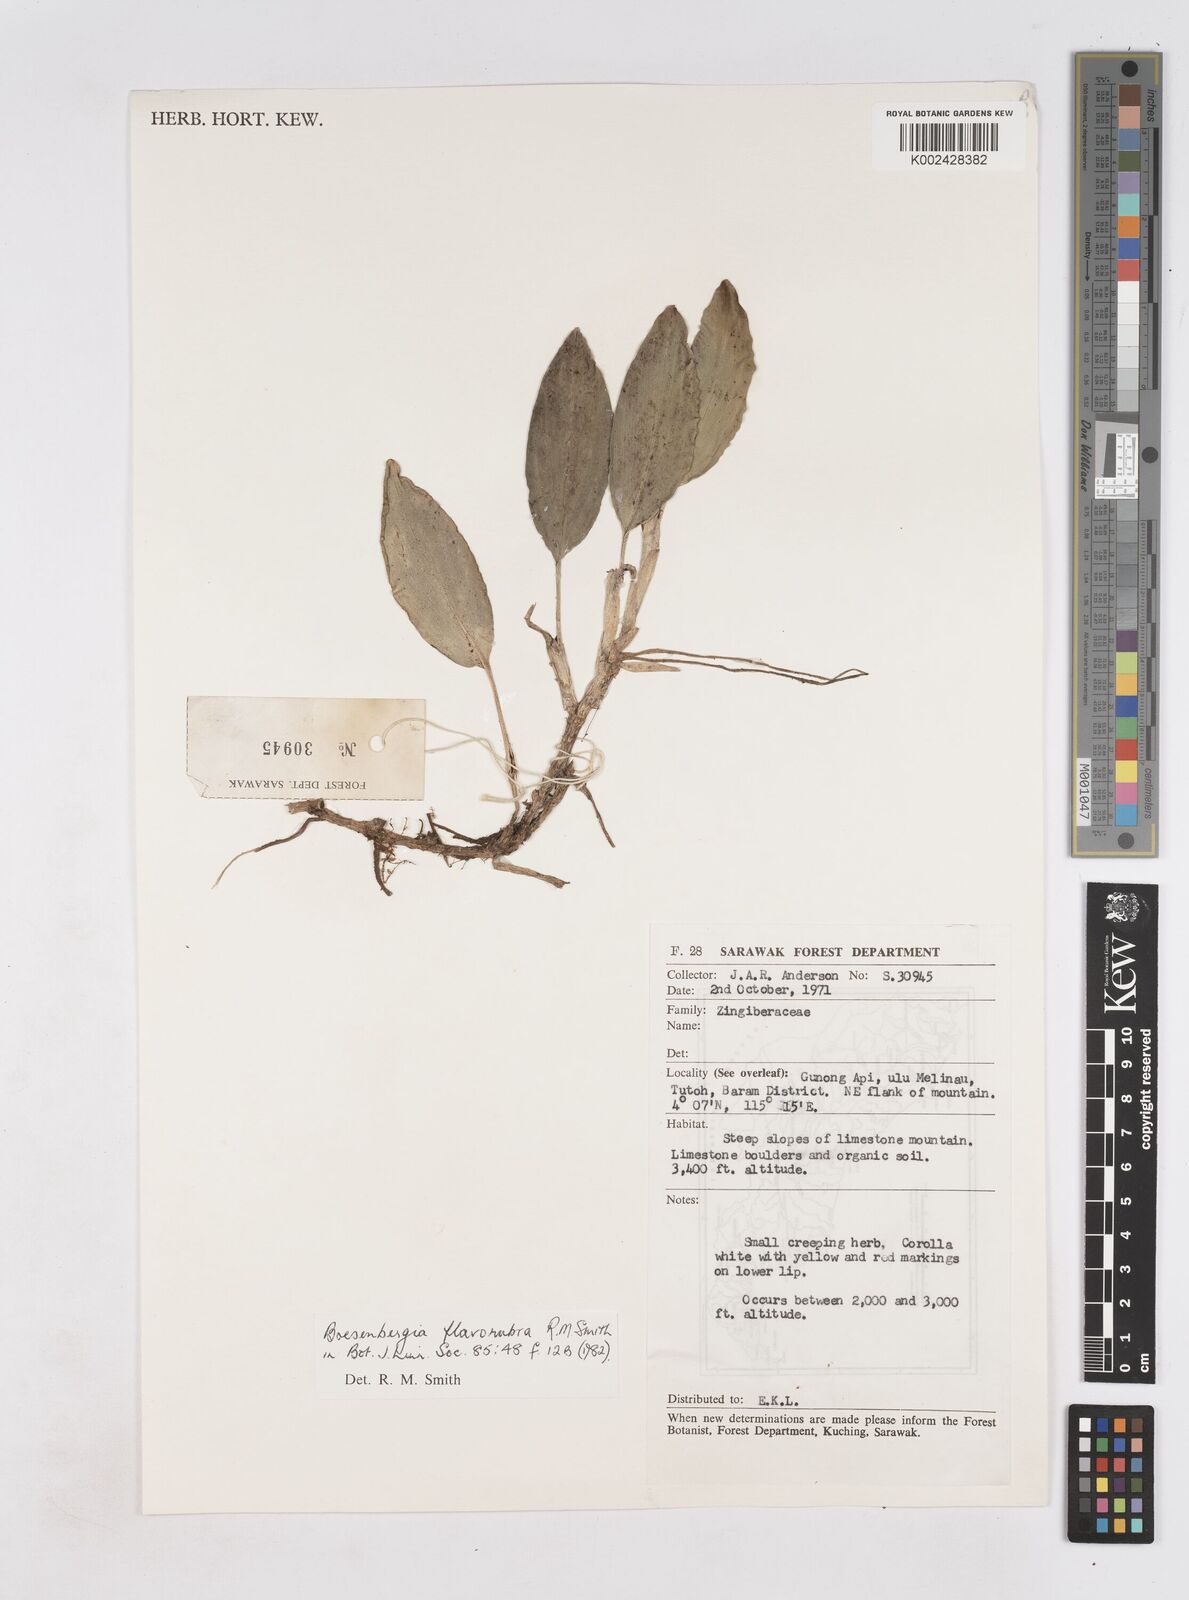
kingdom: Plantae
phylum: Tracheophyta
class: Liliopsida
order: Zingiberales
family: Zingiberaceae
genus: Boesenbergia
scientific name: Boesenbergia flavorubra
